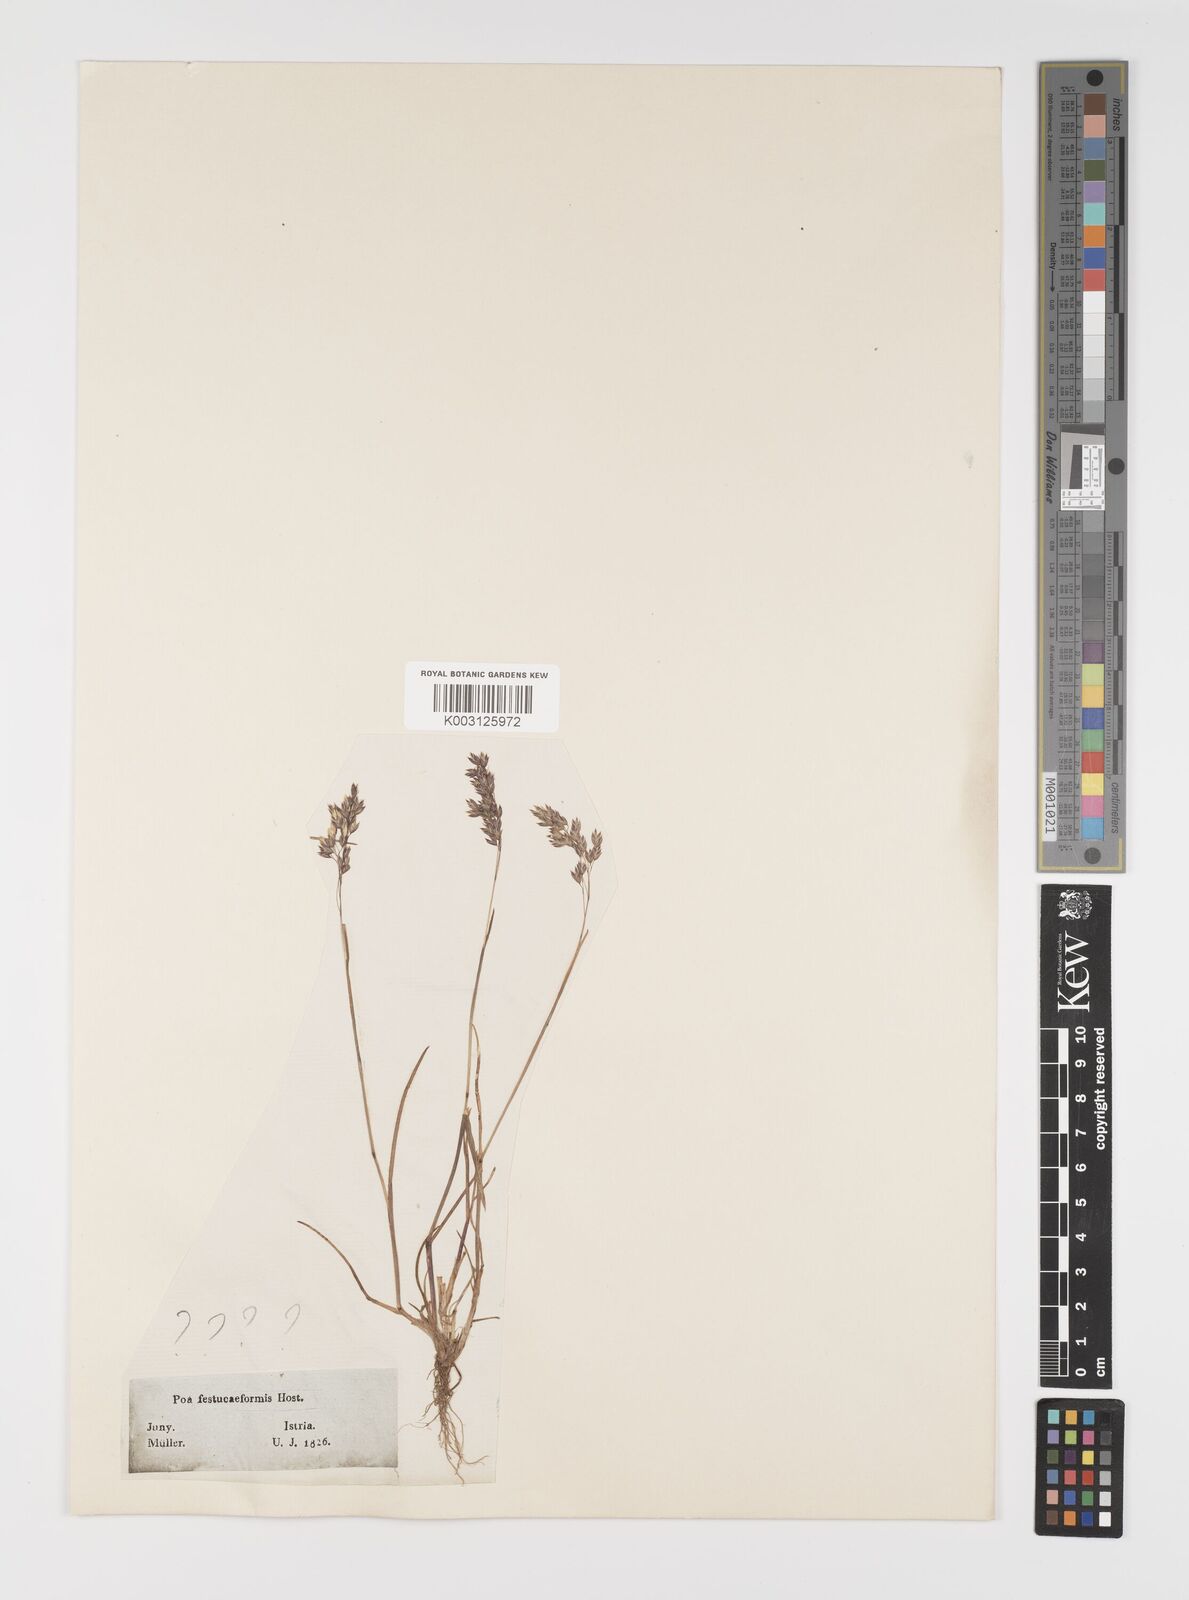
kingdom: Plantae
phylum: Tracheophyta
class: Liliopsida
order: Poales
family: Poaceae
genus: Poa
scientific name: Poa laxa
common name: Lax bluegrass
